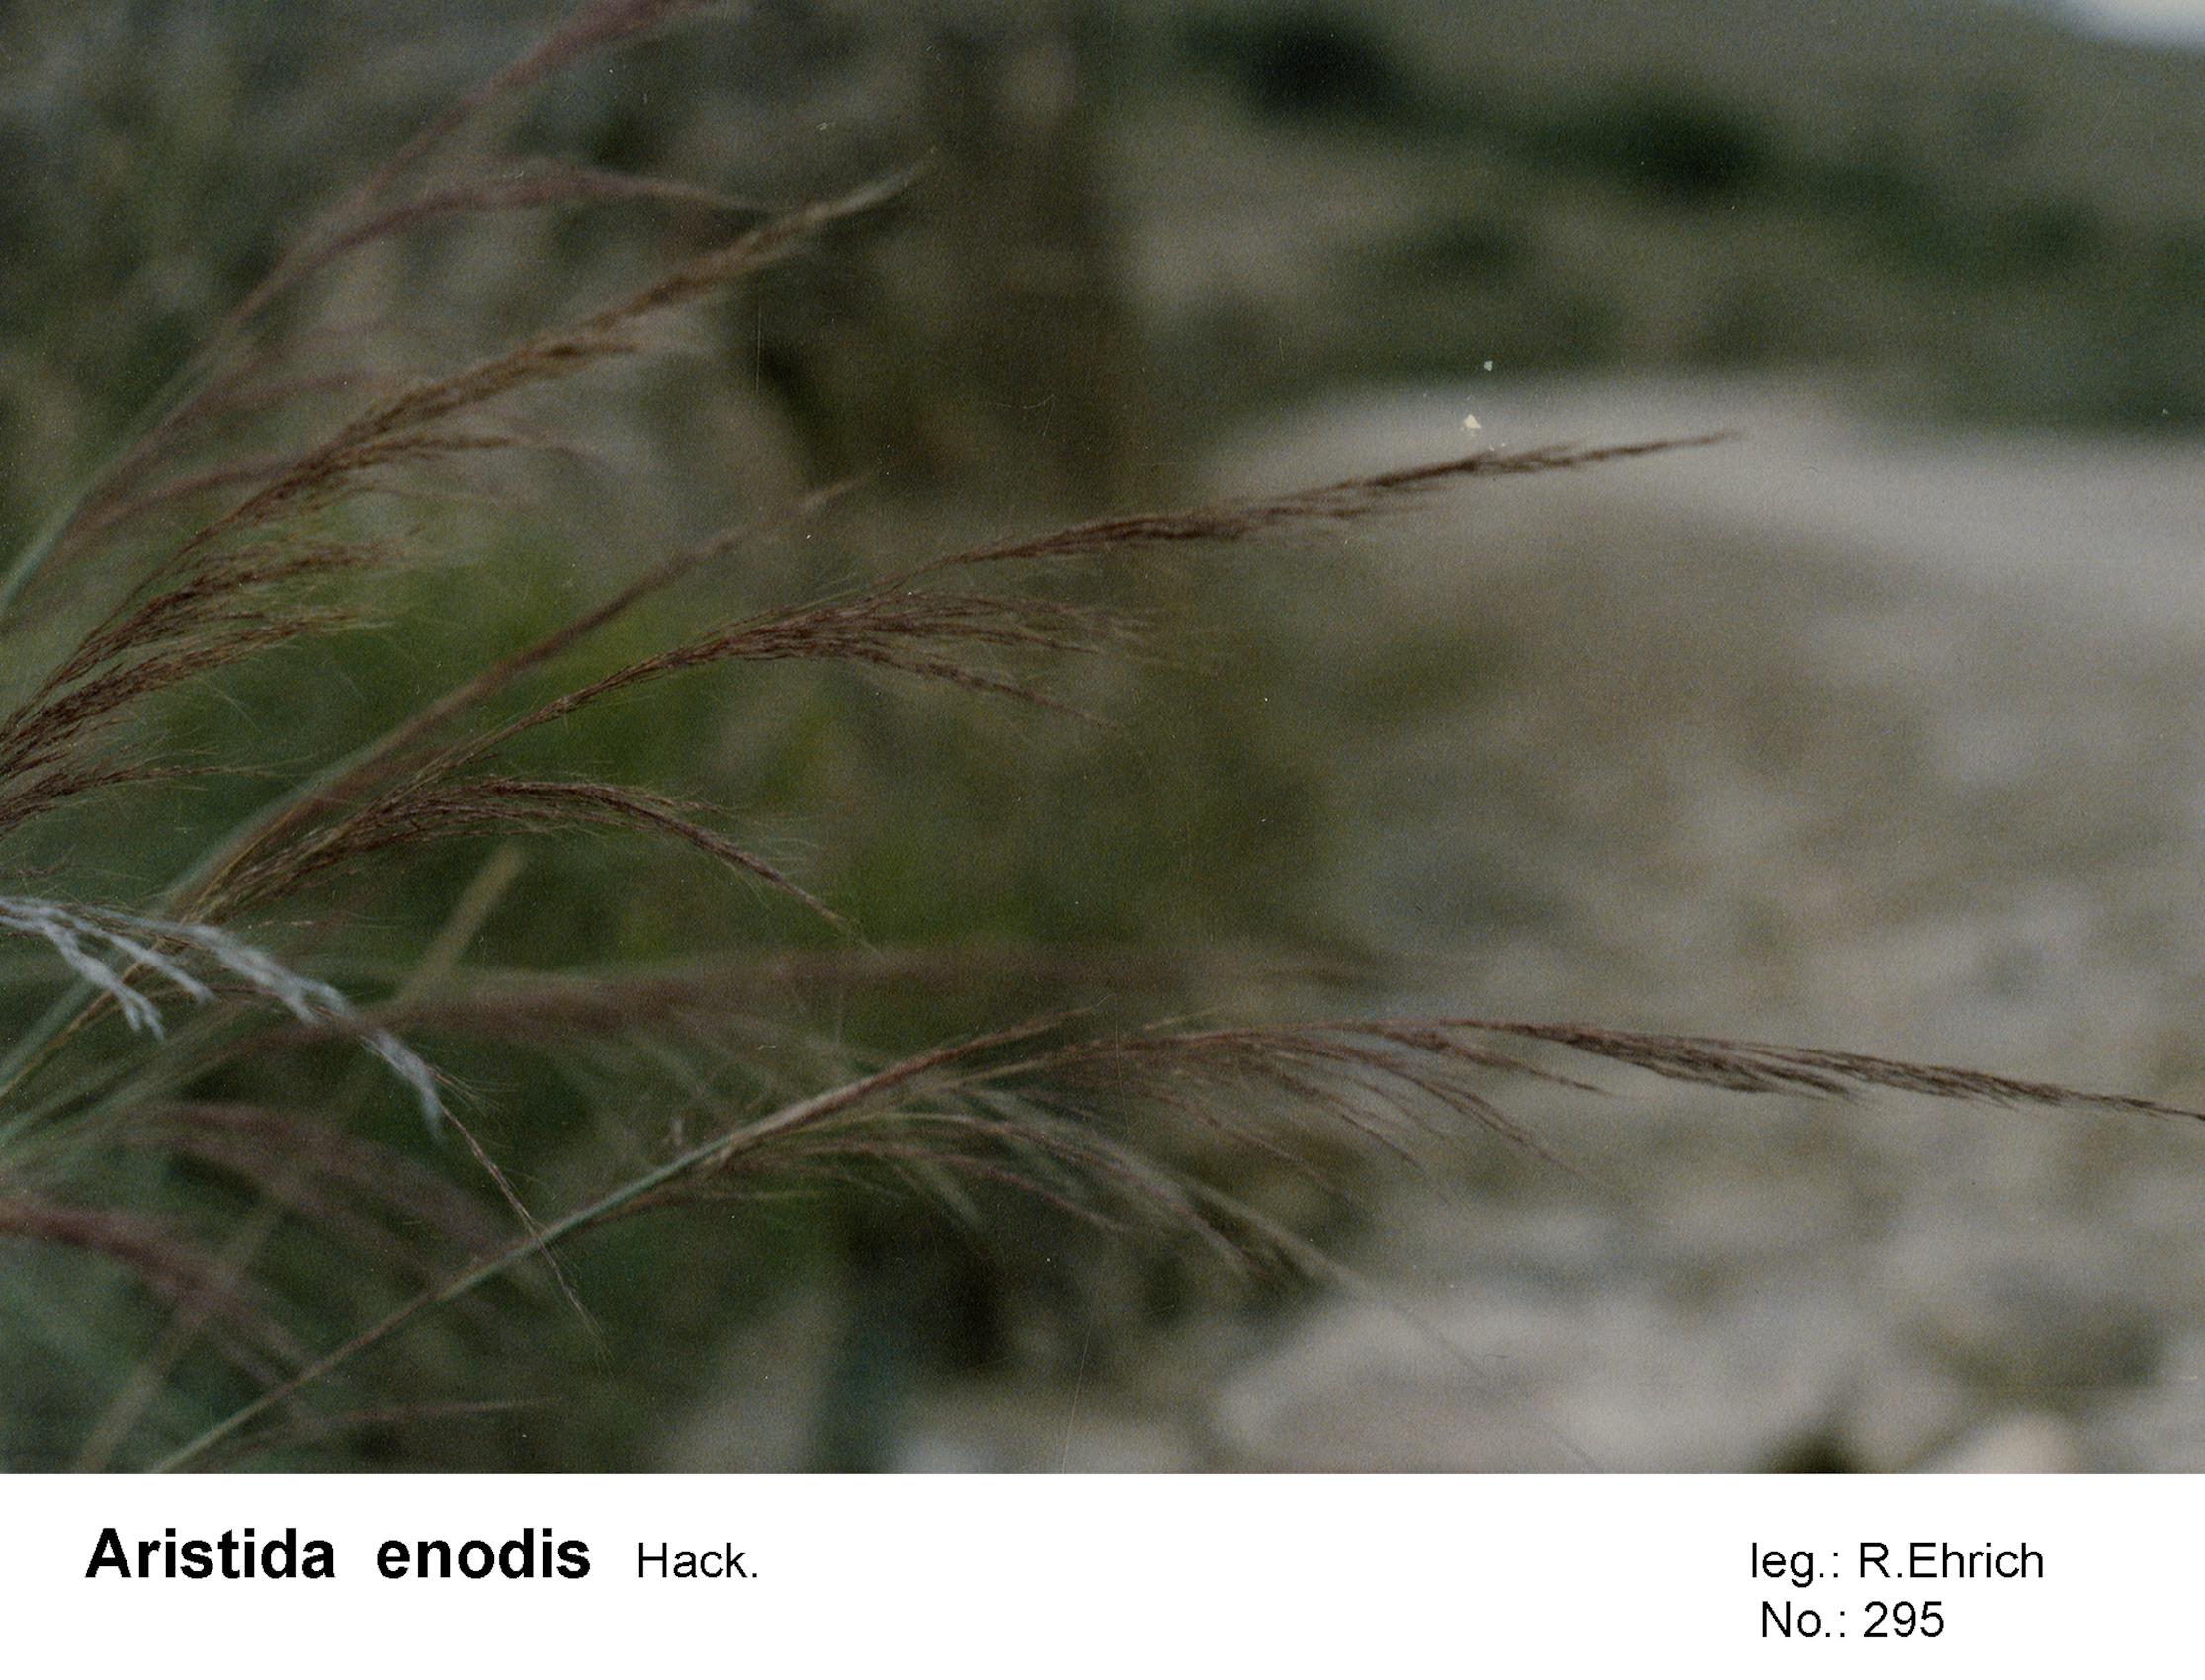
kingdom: Plantae
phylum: Tracheophyta
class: Liliopsida
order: Poales
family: Poaceae
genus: Aristida
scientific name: Aristida antoniana
